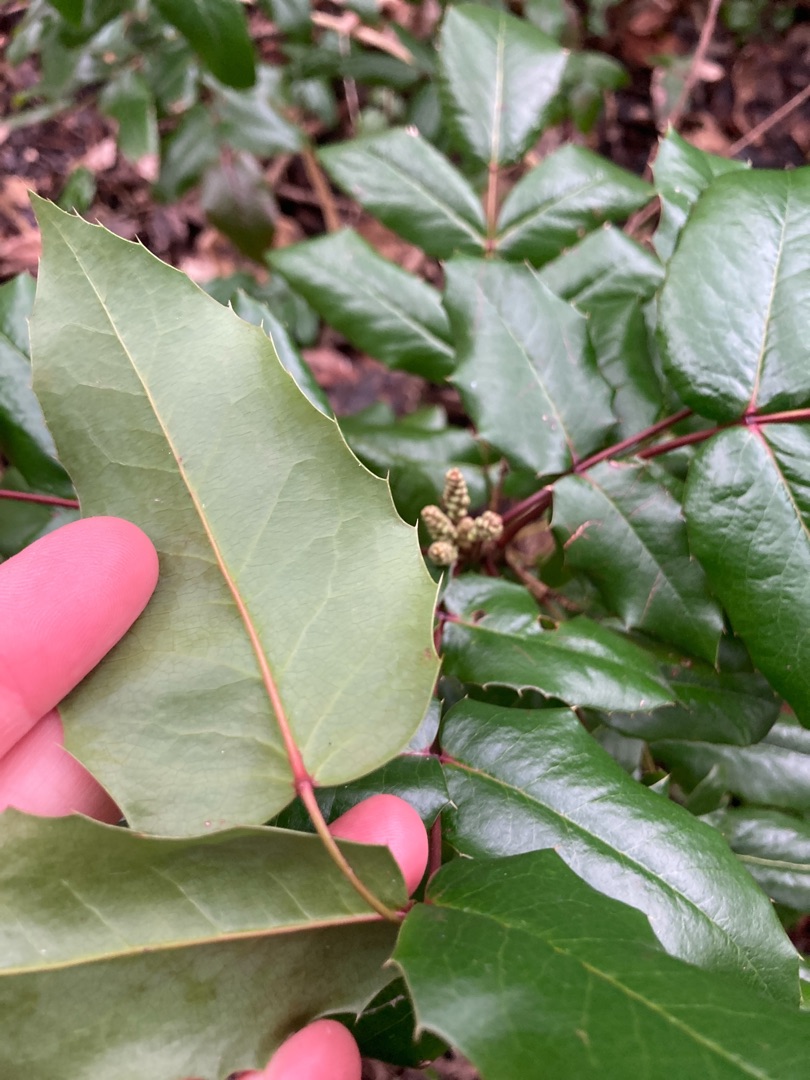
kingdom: Plantae
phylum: Tracheophyta
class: Magnoliopsida
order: Ranunculales
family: Berberidaceae
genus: Mahonia
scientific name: Mahonia aquifolium
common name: Almindelig mahonie
